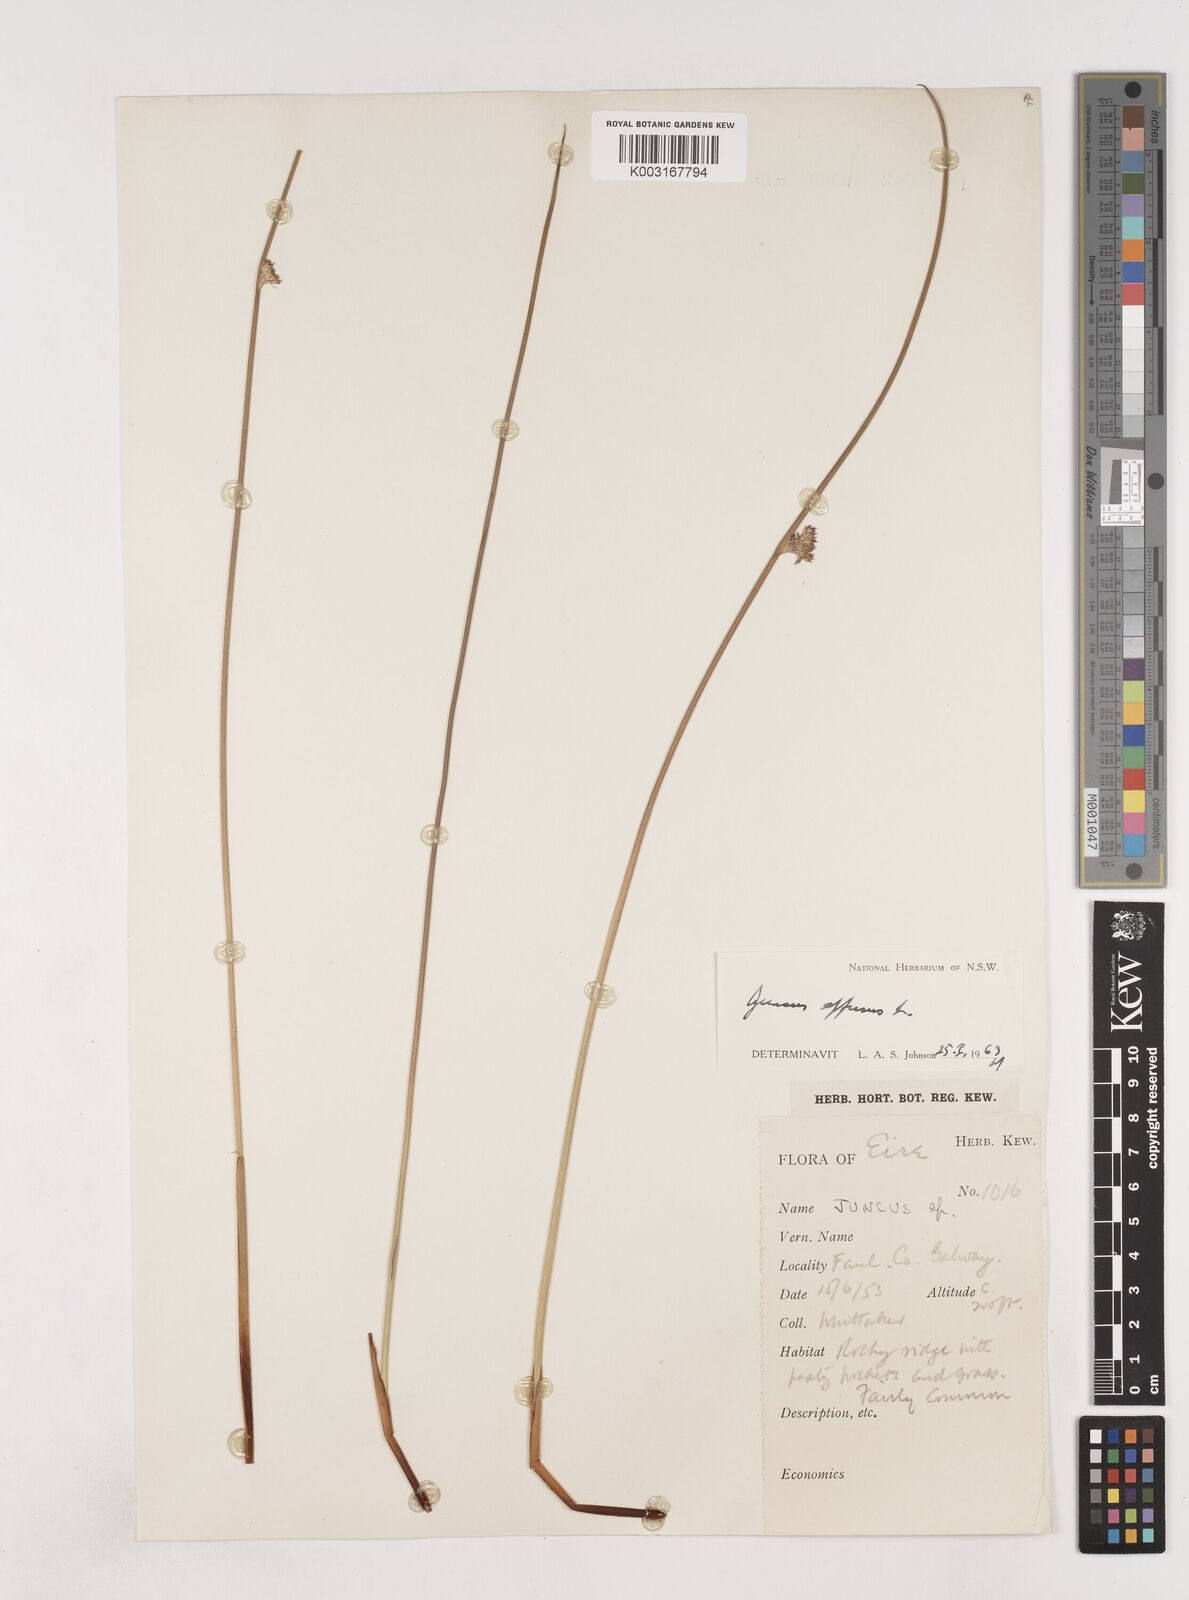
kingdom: Plantae
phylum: Tracheophyta
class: Liliopsida
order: Poales
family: Juncaceae
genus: Juncus
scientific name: Juncus effusus
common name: Soft rush
